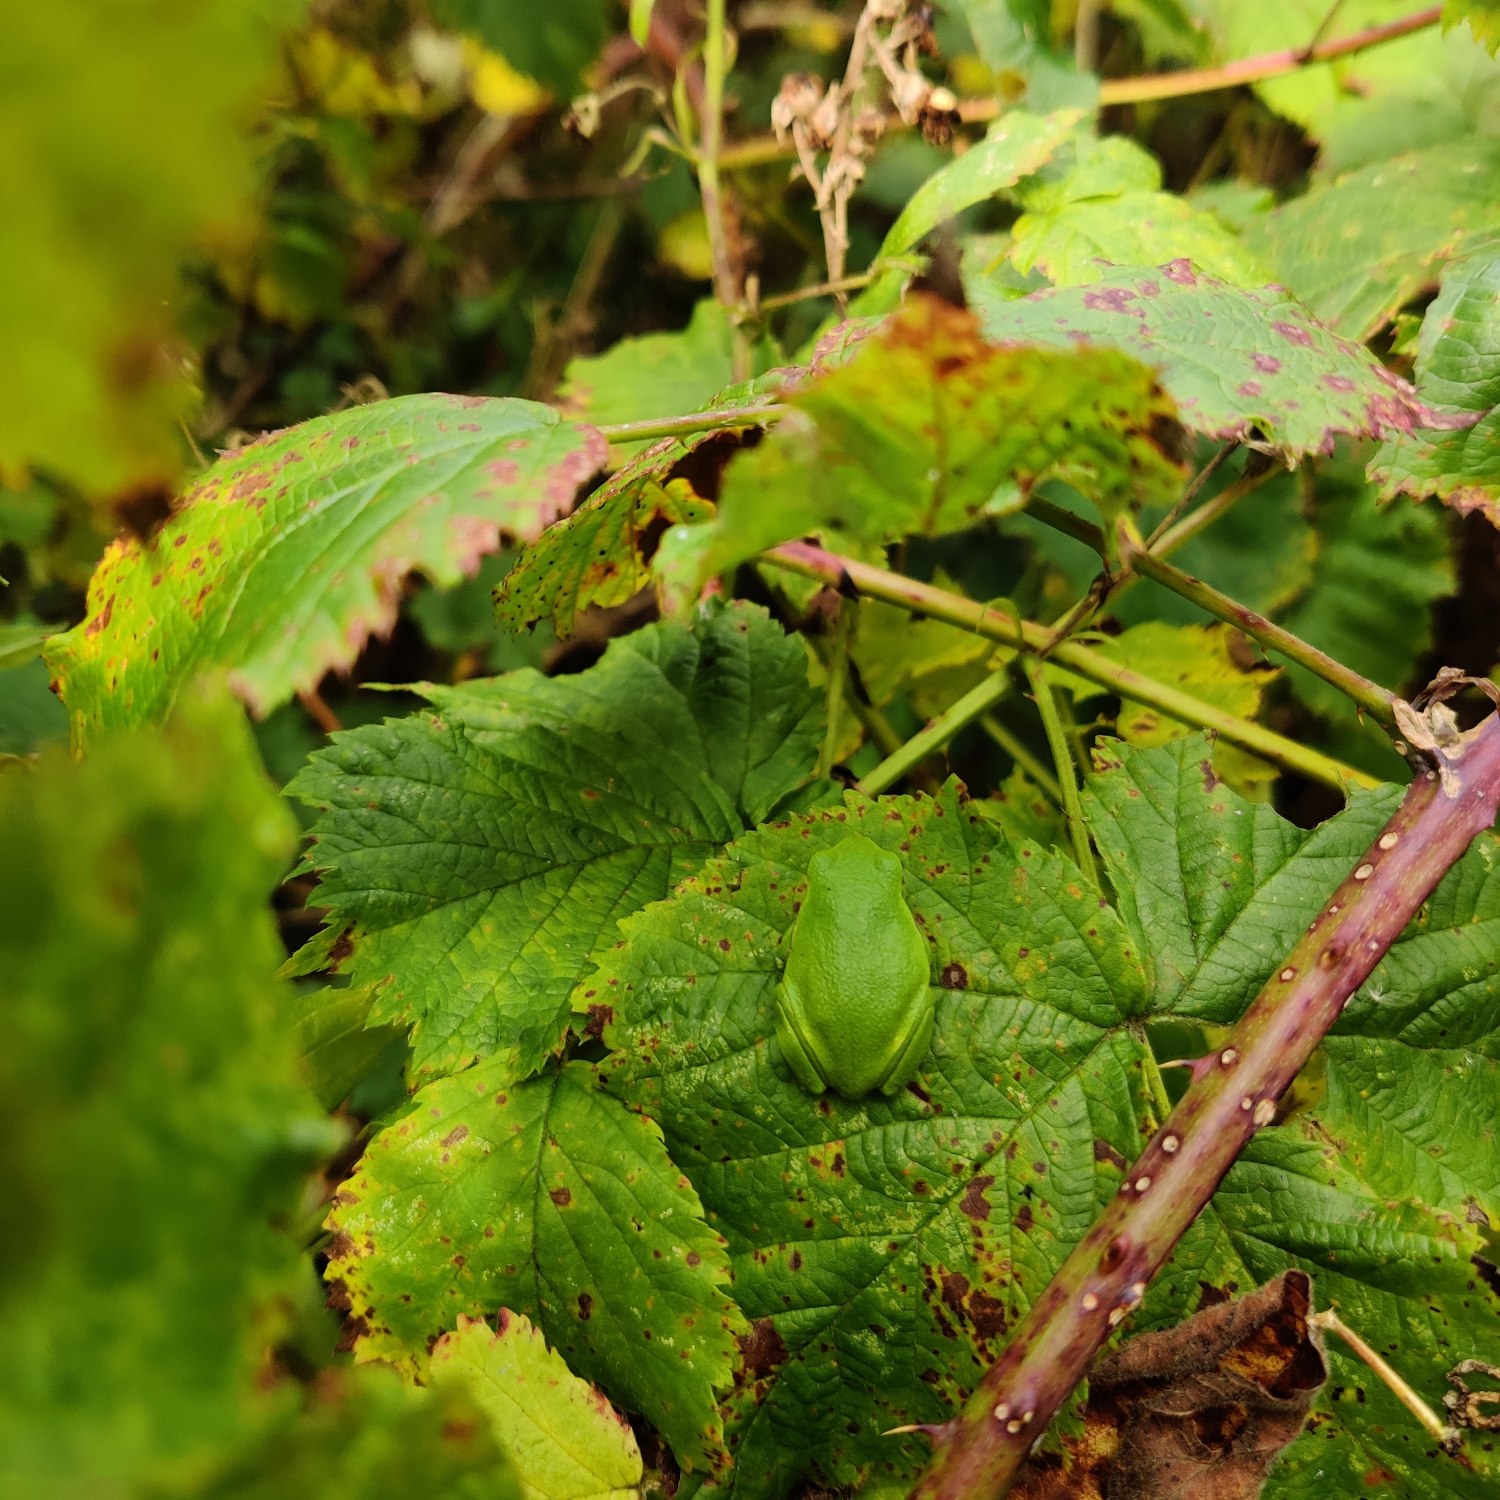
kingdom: Animalia
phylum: Chordata
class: Amphibia
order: Anura
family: Hylidae
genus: Hyla
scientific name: Hyla arborea
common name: Løvfrø
